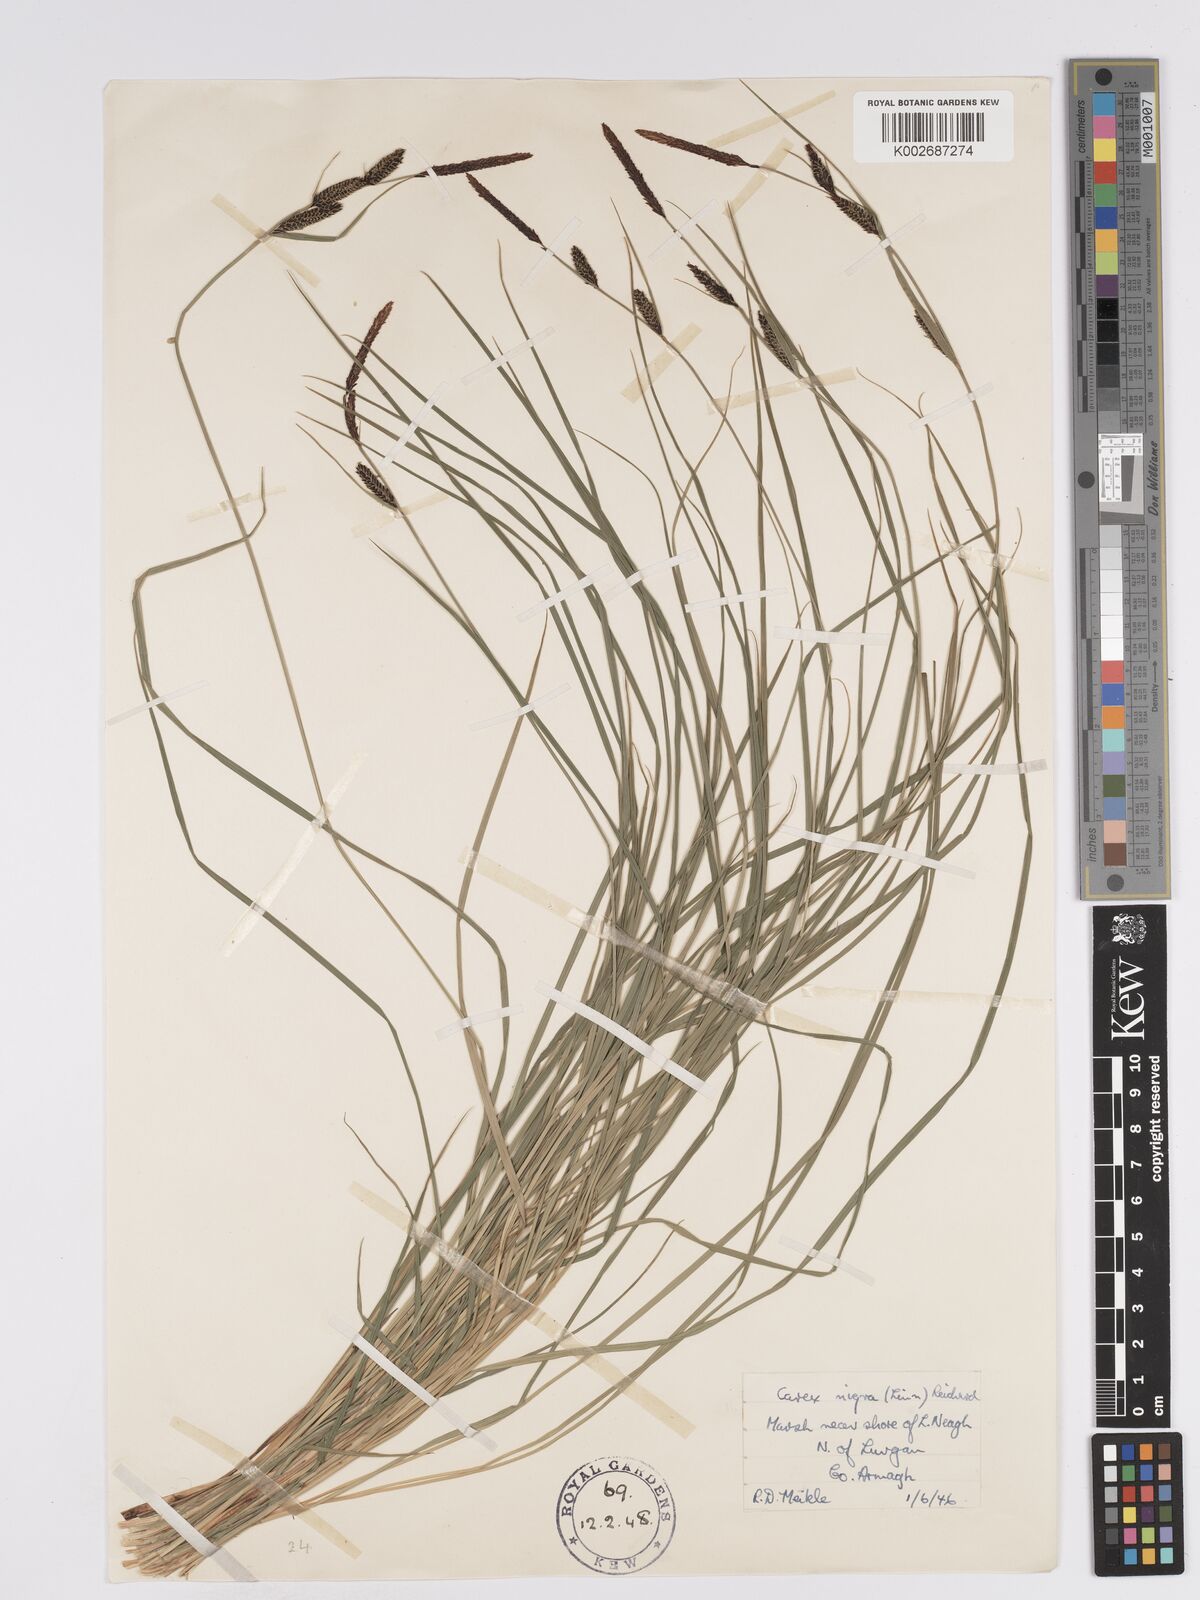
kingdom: Plantae
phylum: Tracheophyta
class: Liliopsida
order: Poales
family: Cyperaceae
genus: Carex
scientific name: Carex nigra
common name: Common sedge
